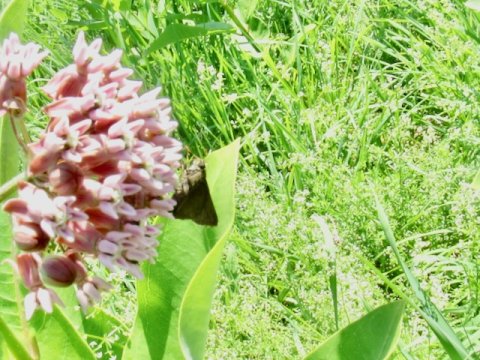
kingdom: Animalia
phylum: Arthropoda
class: Insecta
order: Lepidoptera
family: Hesperiidae
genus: Euphyes
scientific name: Euphyes vestris
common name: Dun Skipper
